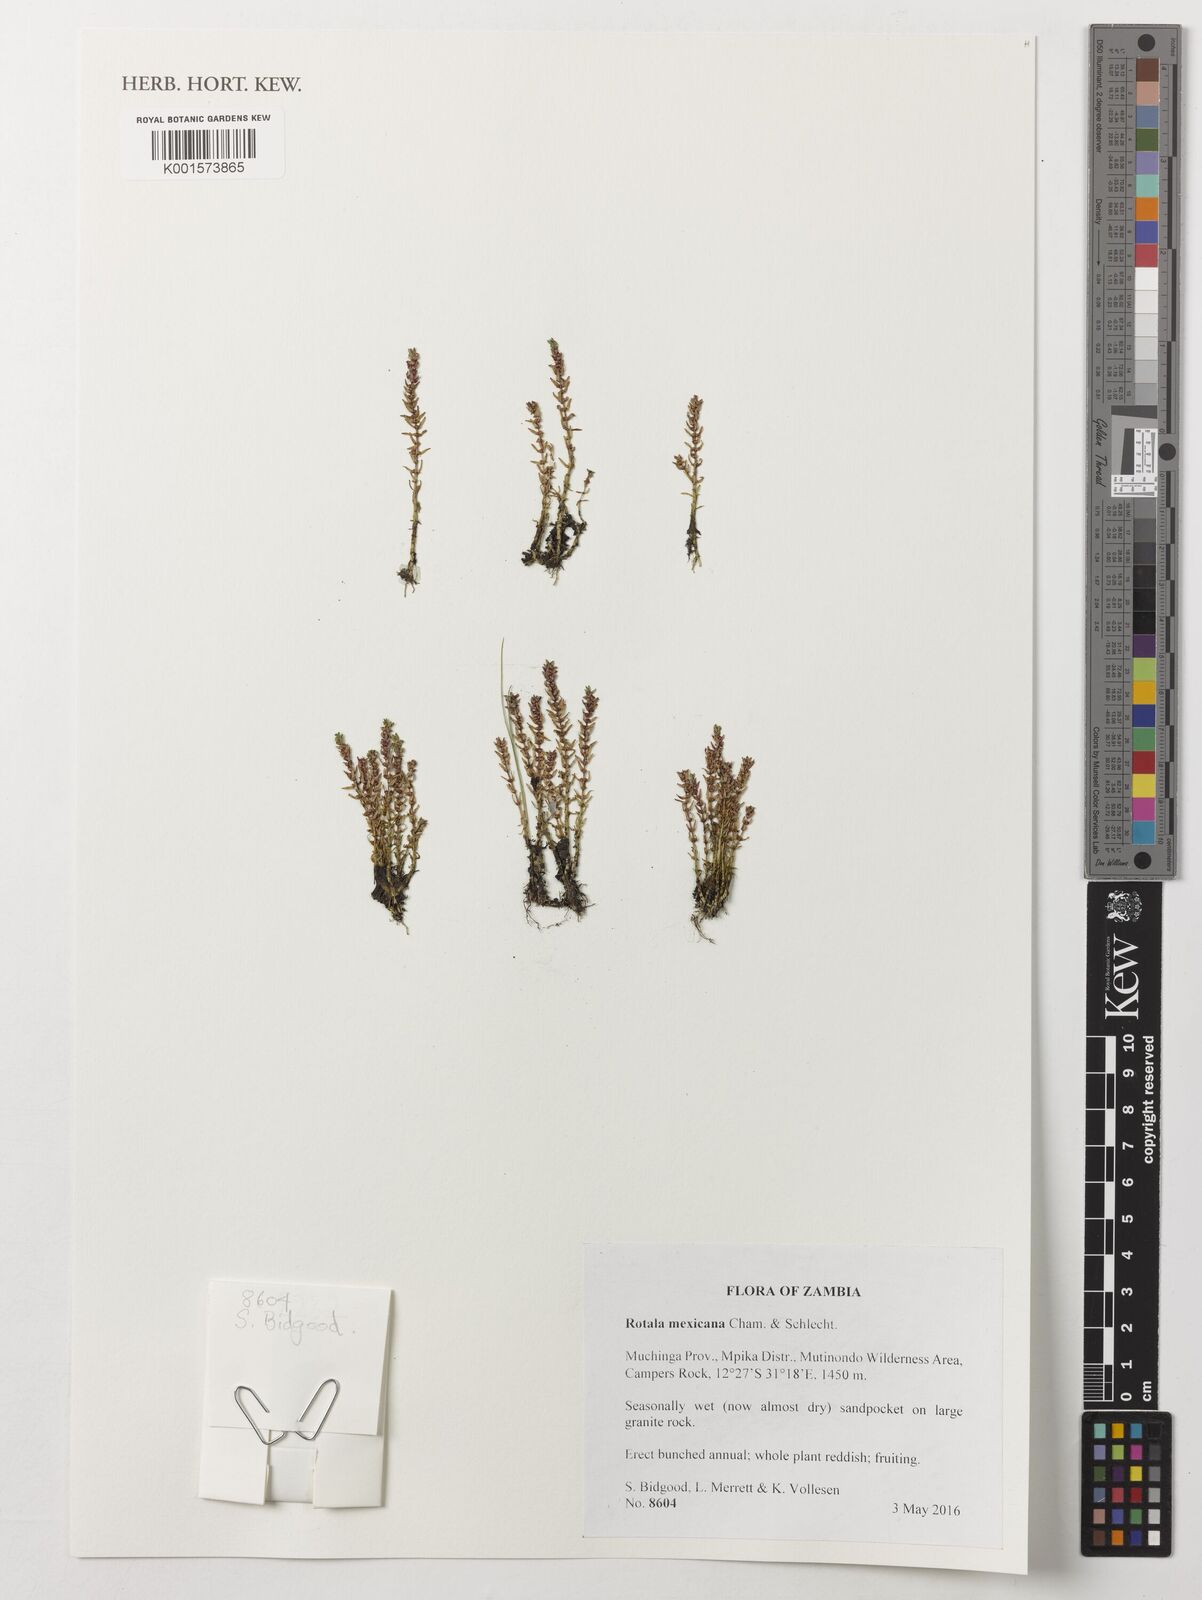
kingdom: Plantae
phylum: Tracheophyta
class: Magnoliopsida
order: Myrtales
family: Lythraceae
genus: Rotala
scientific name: Rotala mexicana
